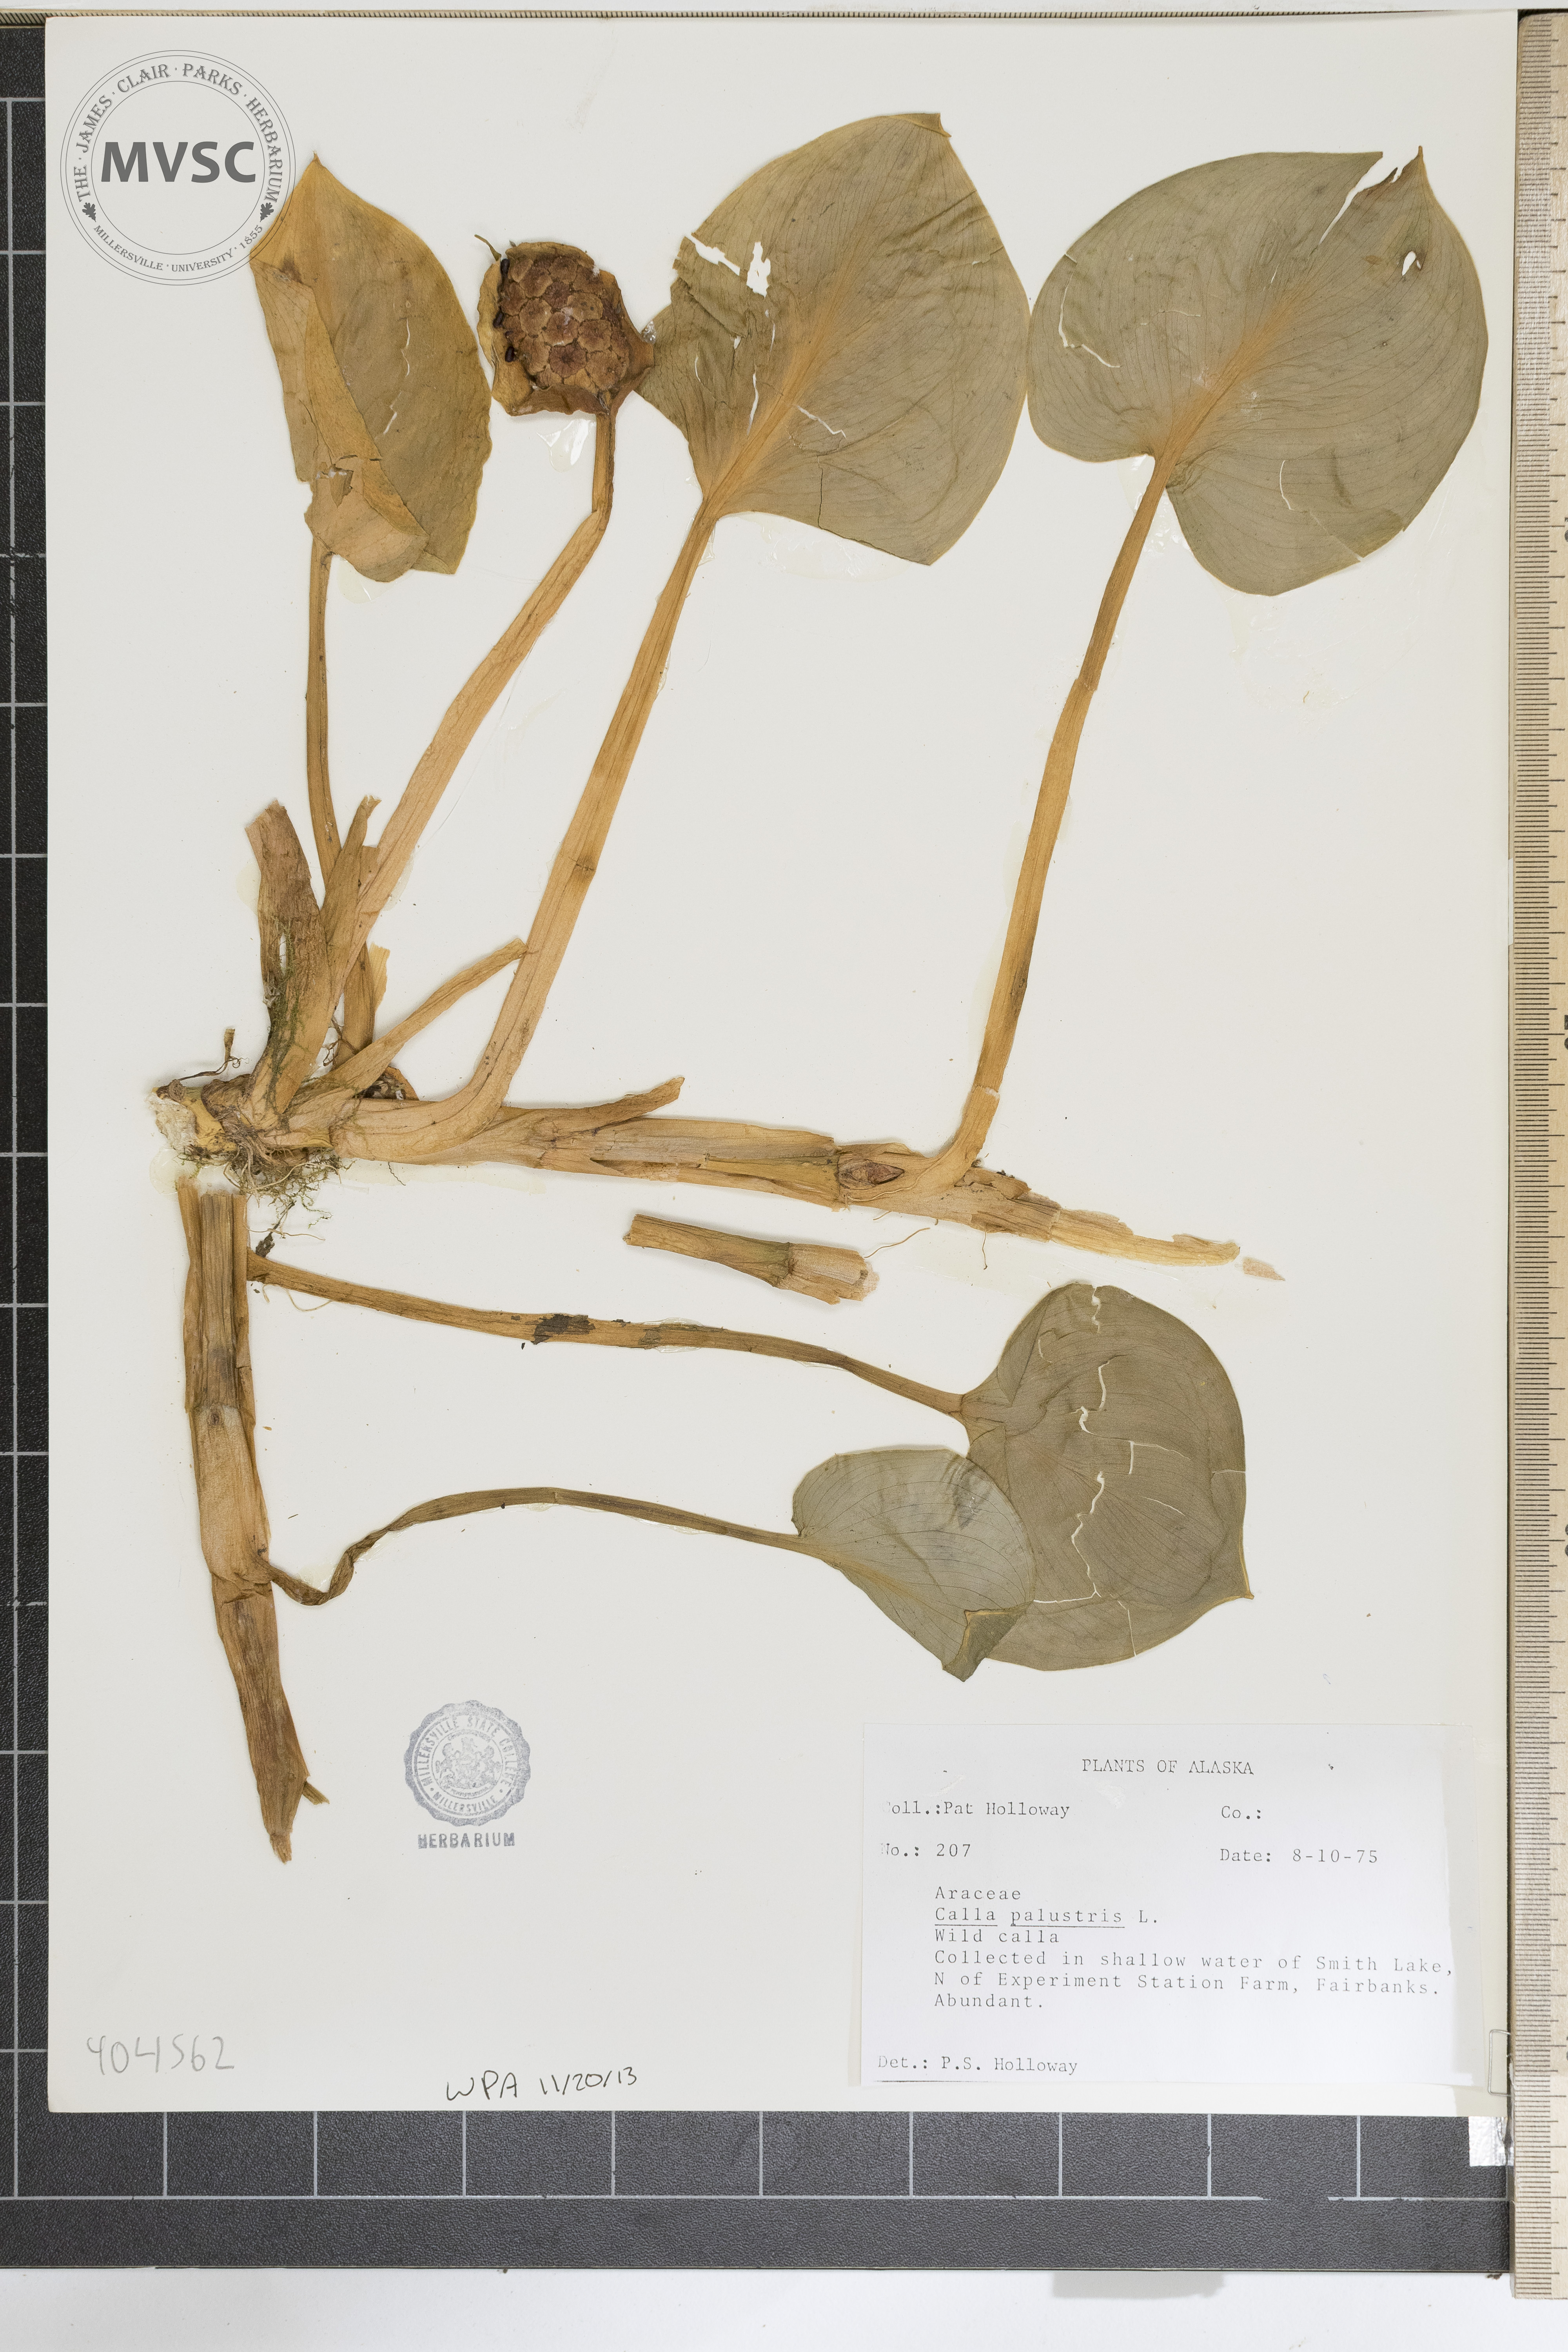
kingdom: Plantae
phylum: Tracheophyta
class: Liliopsida
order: Alismatales
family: Araceae
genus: Calla
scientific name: Calla palustris
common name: Wild calla
